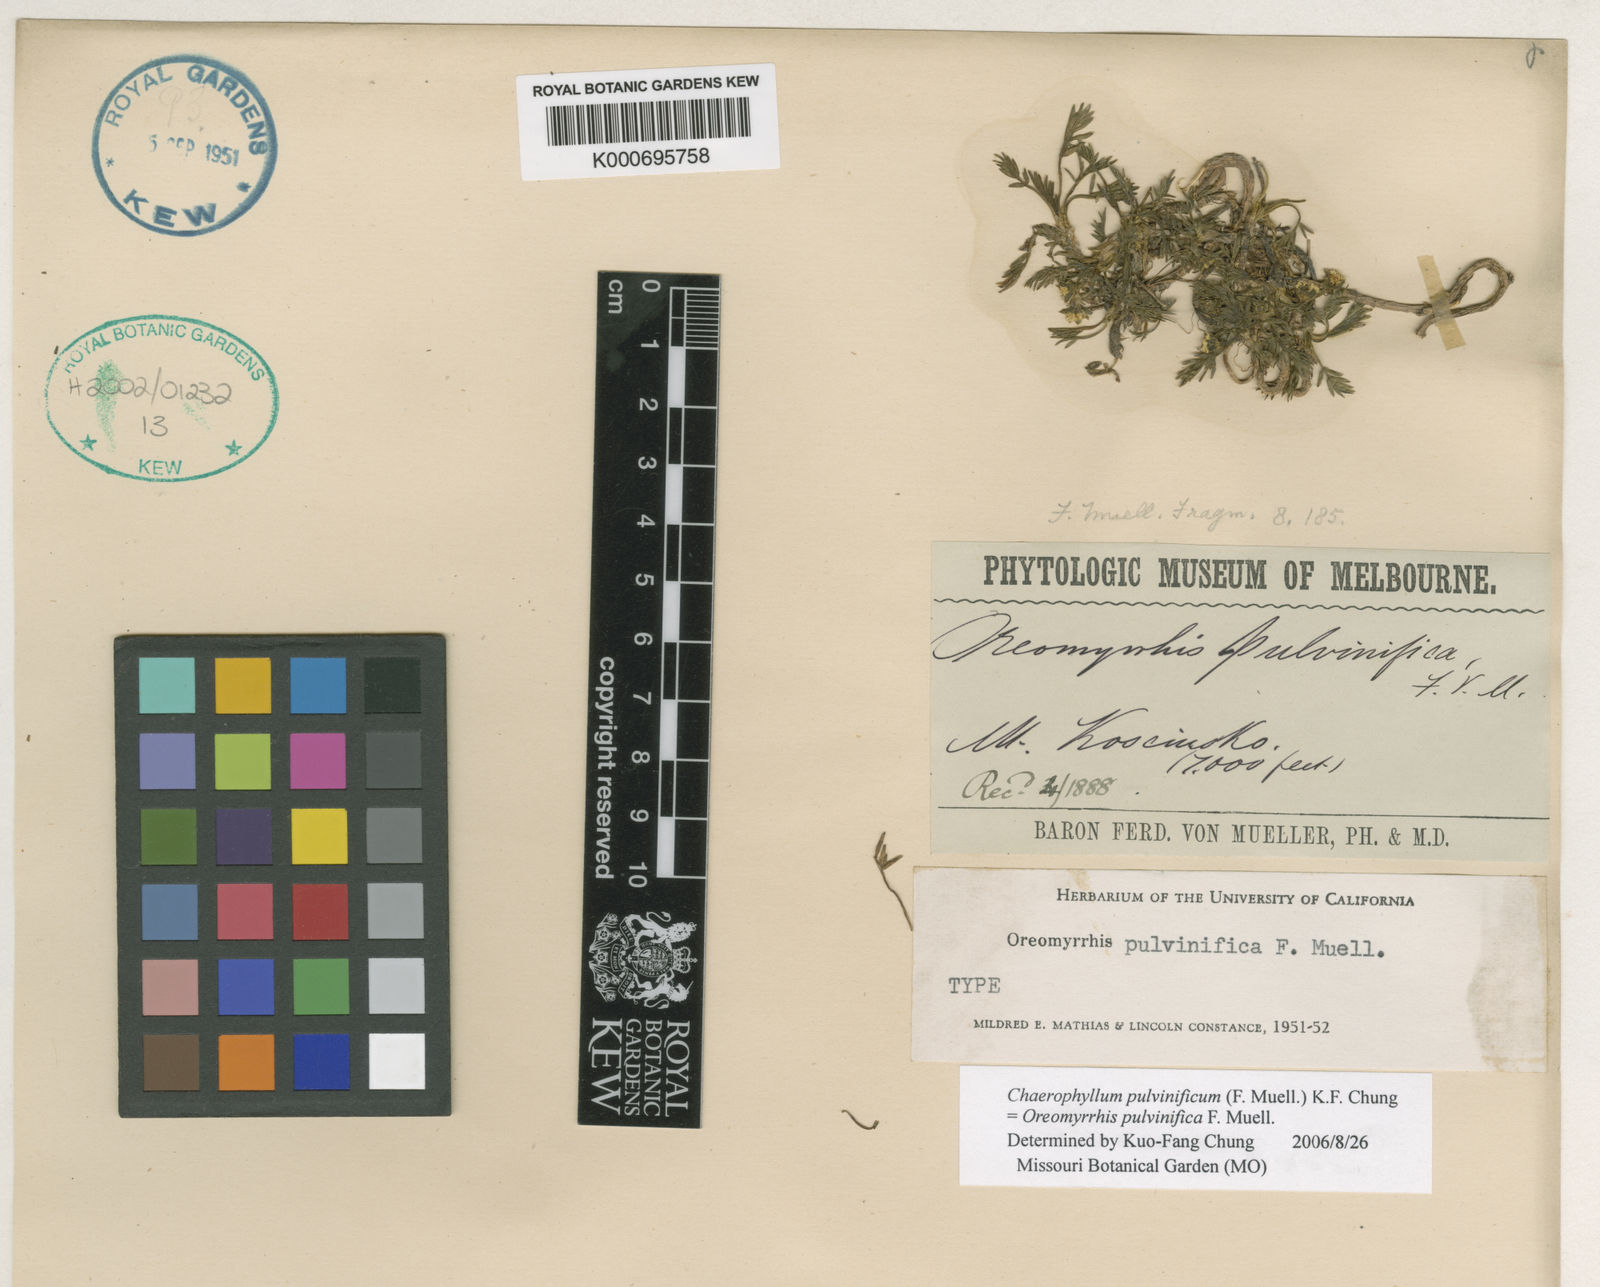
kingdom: Plantae
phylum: Tracheophyta
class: Magnoliopsida
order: Apiales
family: Apiaceae
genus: Chaerophyllum
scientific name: Chaerophyllum pulvinificum
